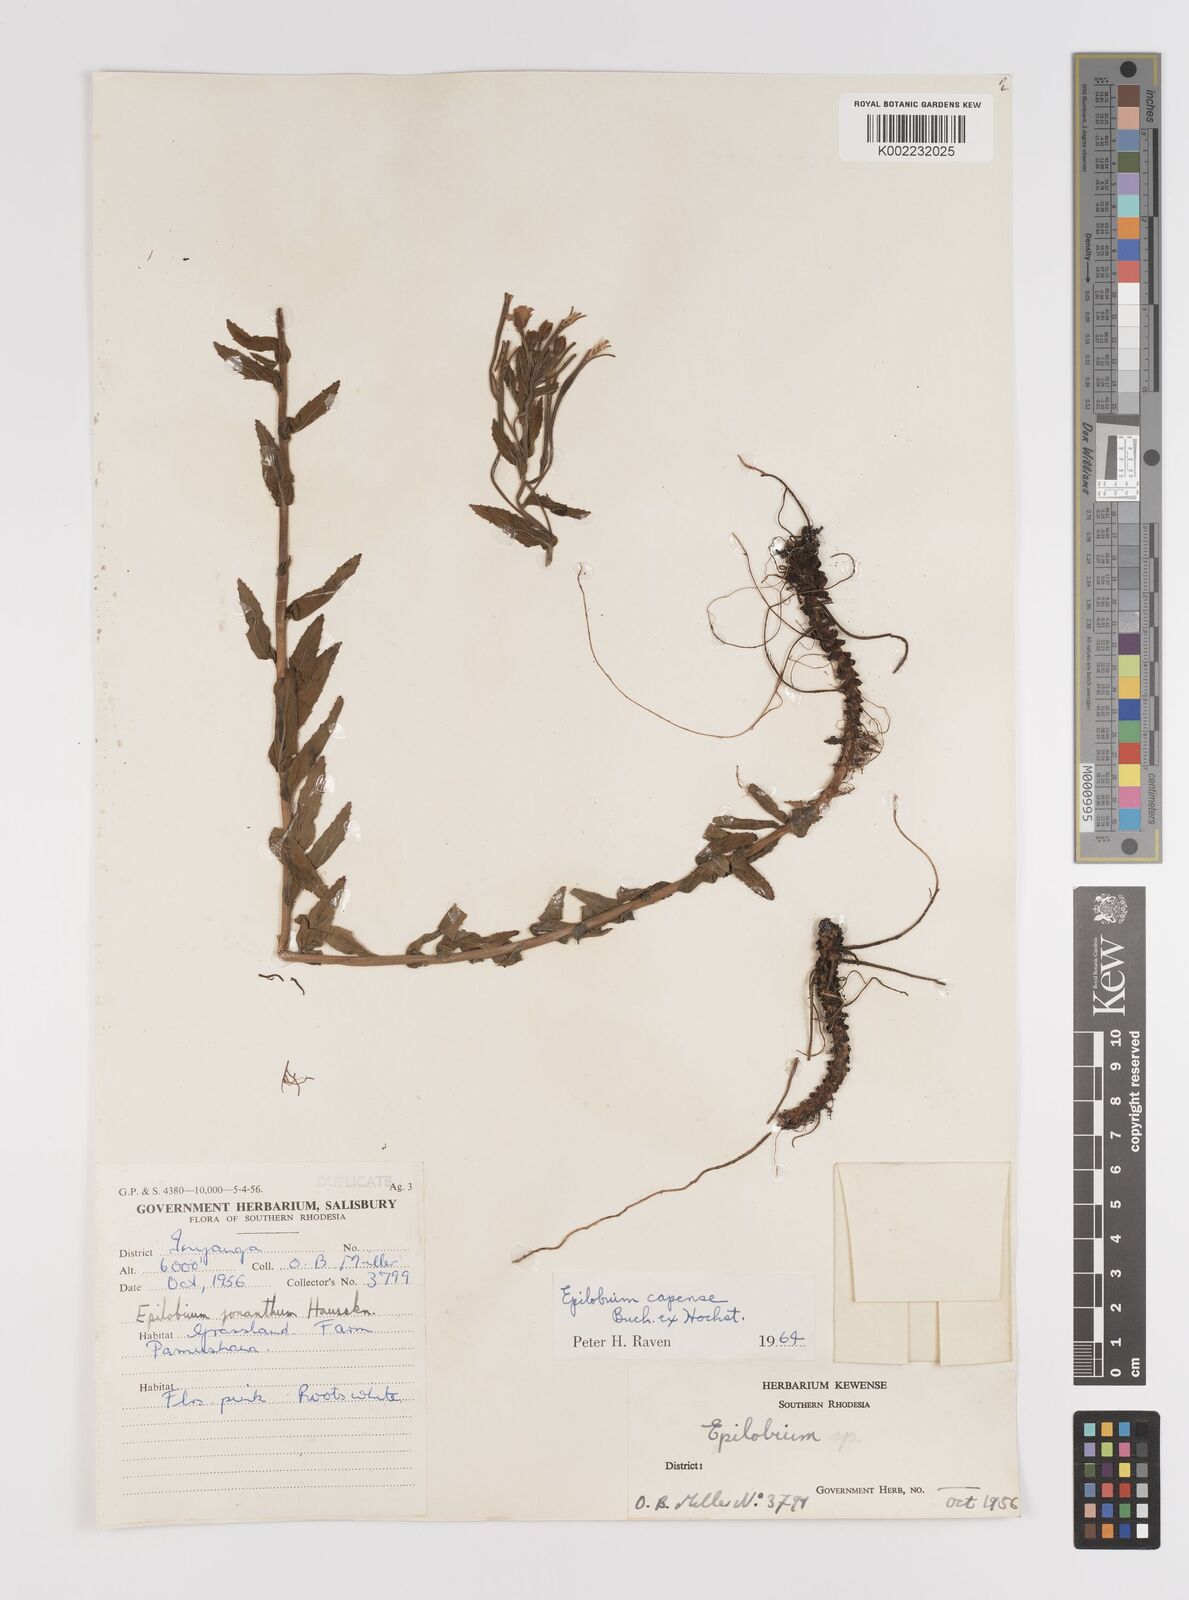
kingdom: Plantae
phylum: Tracheophyta
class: Magnoliopsida
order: Myrtales
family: Onagraceae
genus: Epilobium
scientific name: Epilobium capense
